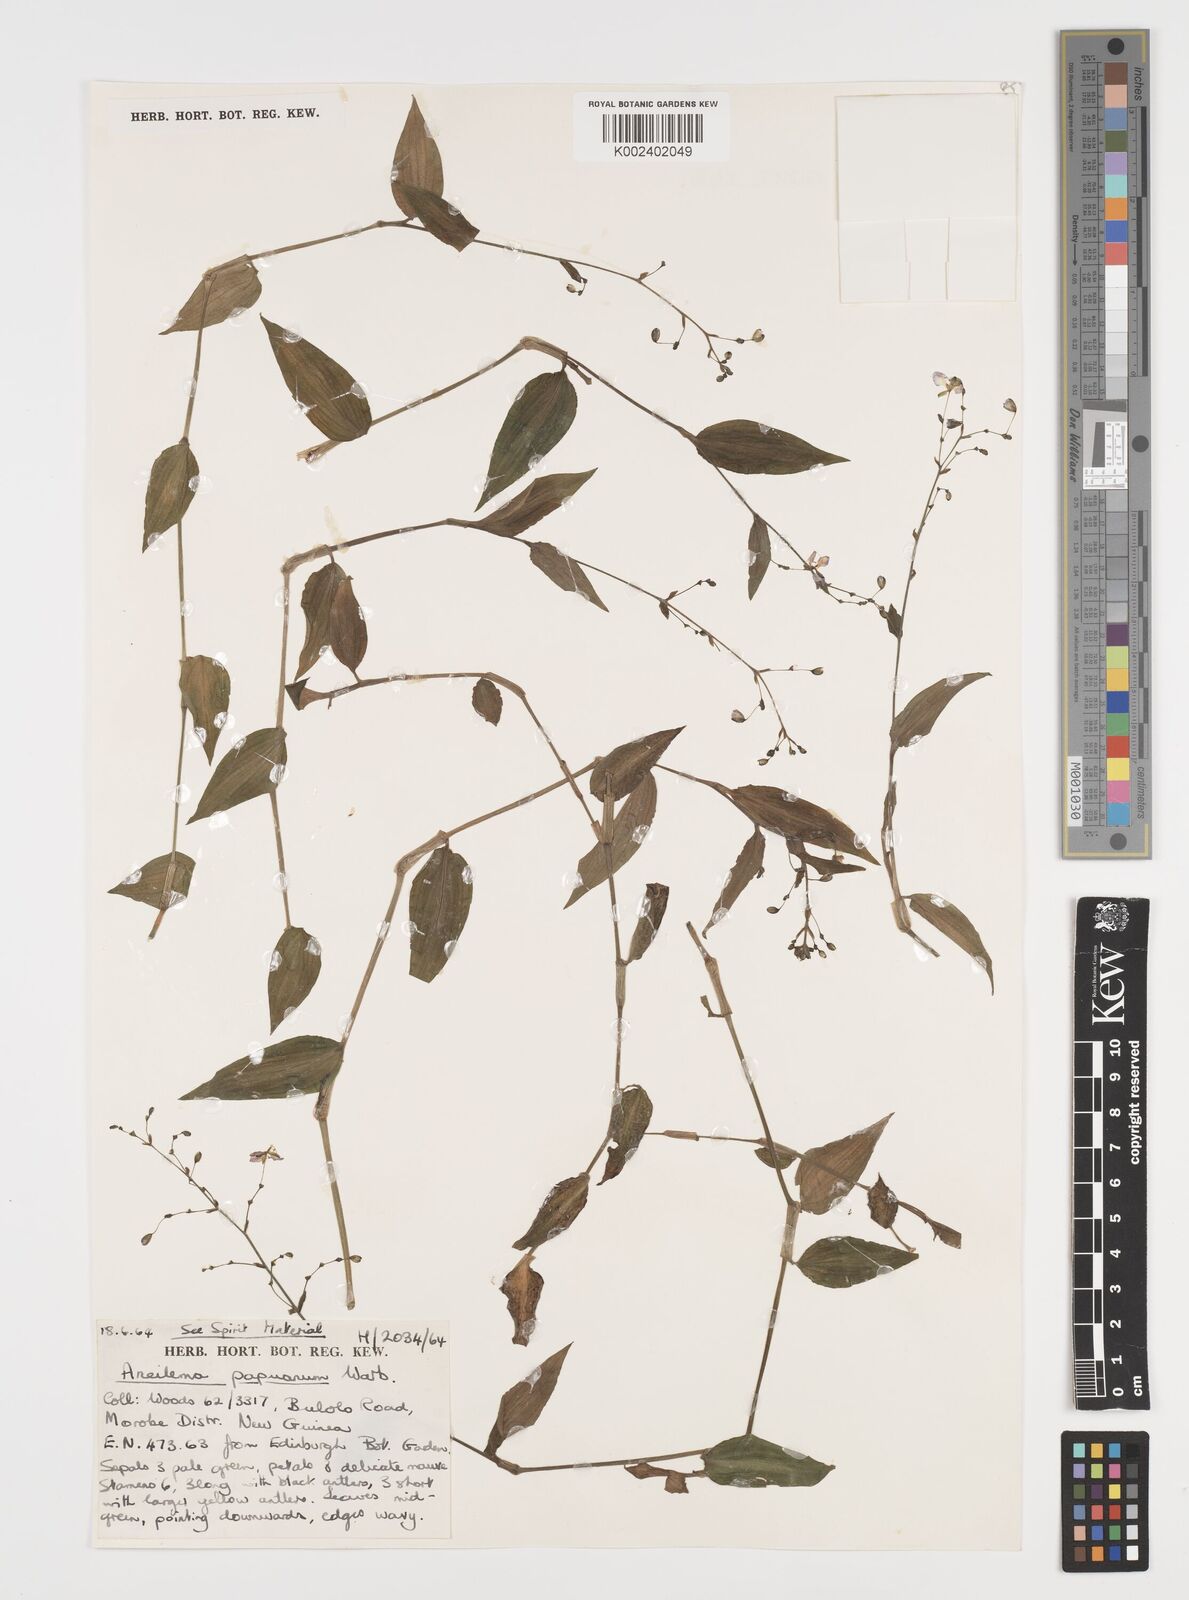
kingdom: Plantae
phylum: Tracheophyta
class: Liliopsida
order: Commelinales
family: Commelinaceae
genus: Aneilema
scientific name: Aneilema acuminatum
